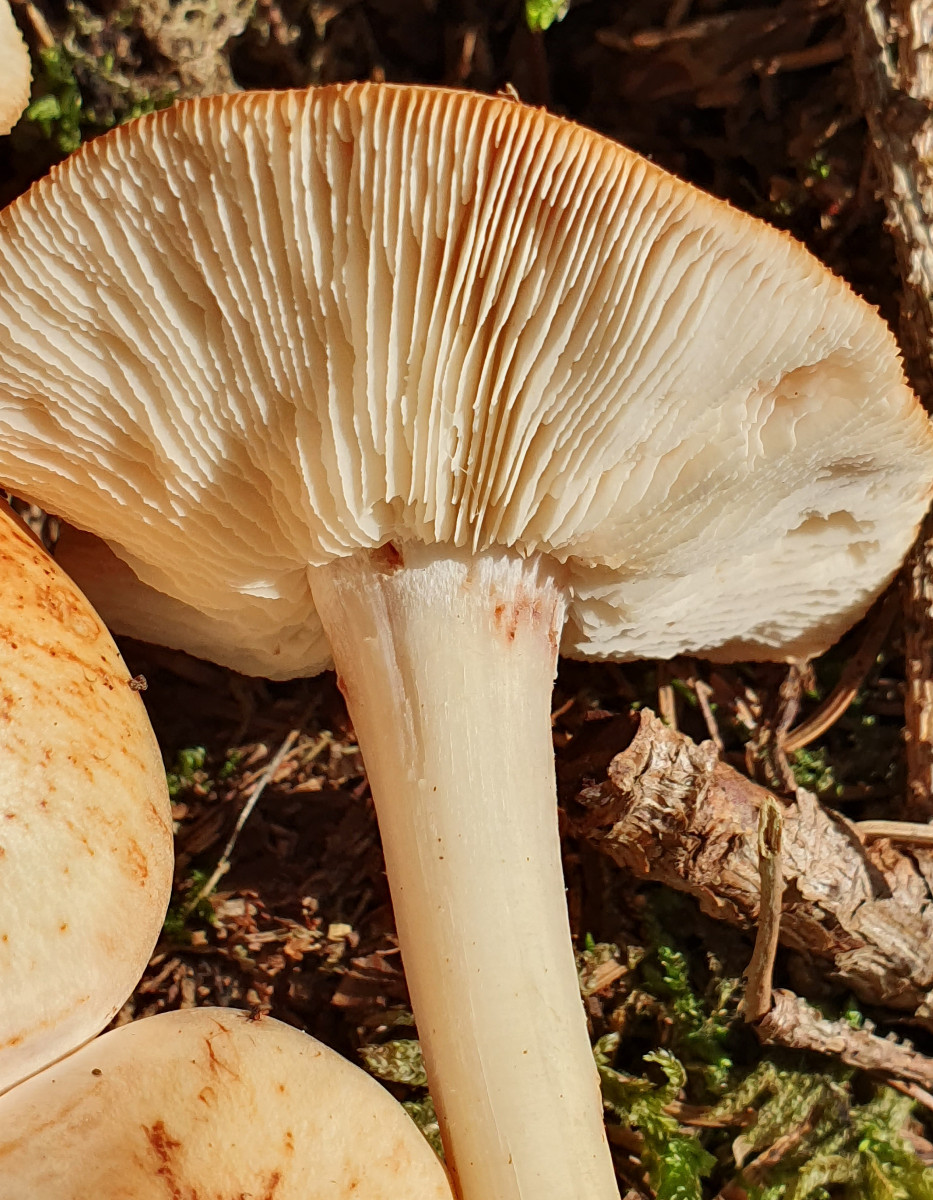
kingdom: Fungi
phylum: Basidiomycota
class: Agaricomycetes
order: Agaricales
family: Omphalotaceae
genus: Rhodocollybia
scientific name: Rhodocollybia maculata
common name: plettet fladhat
